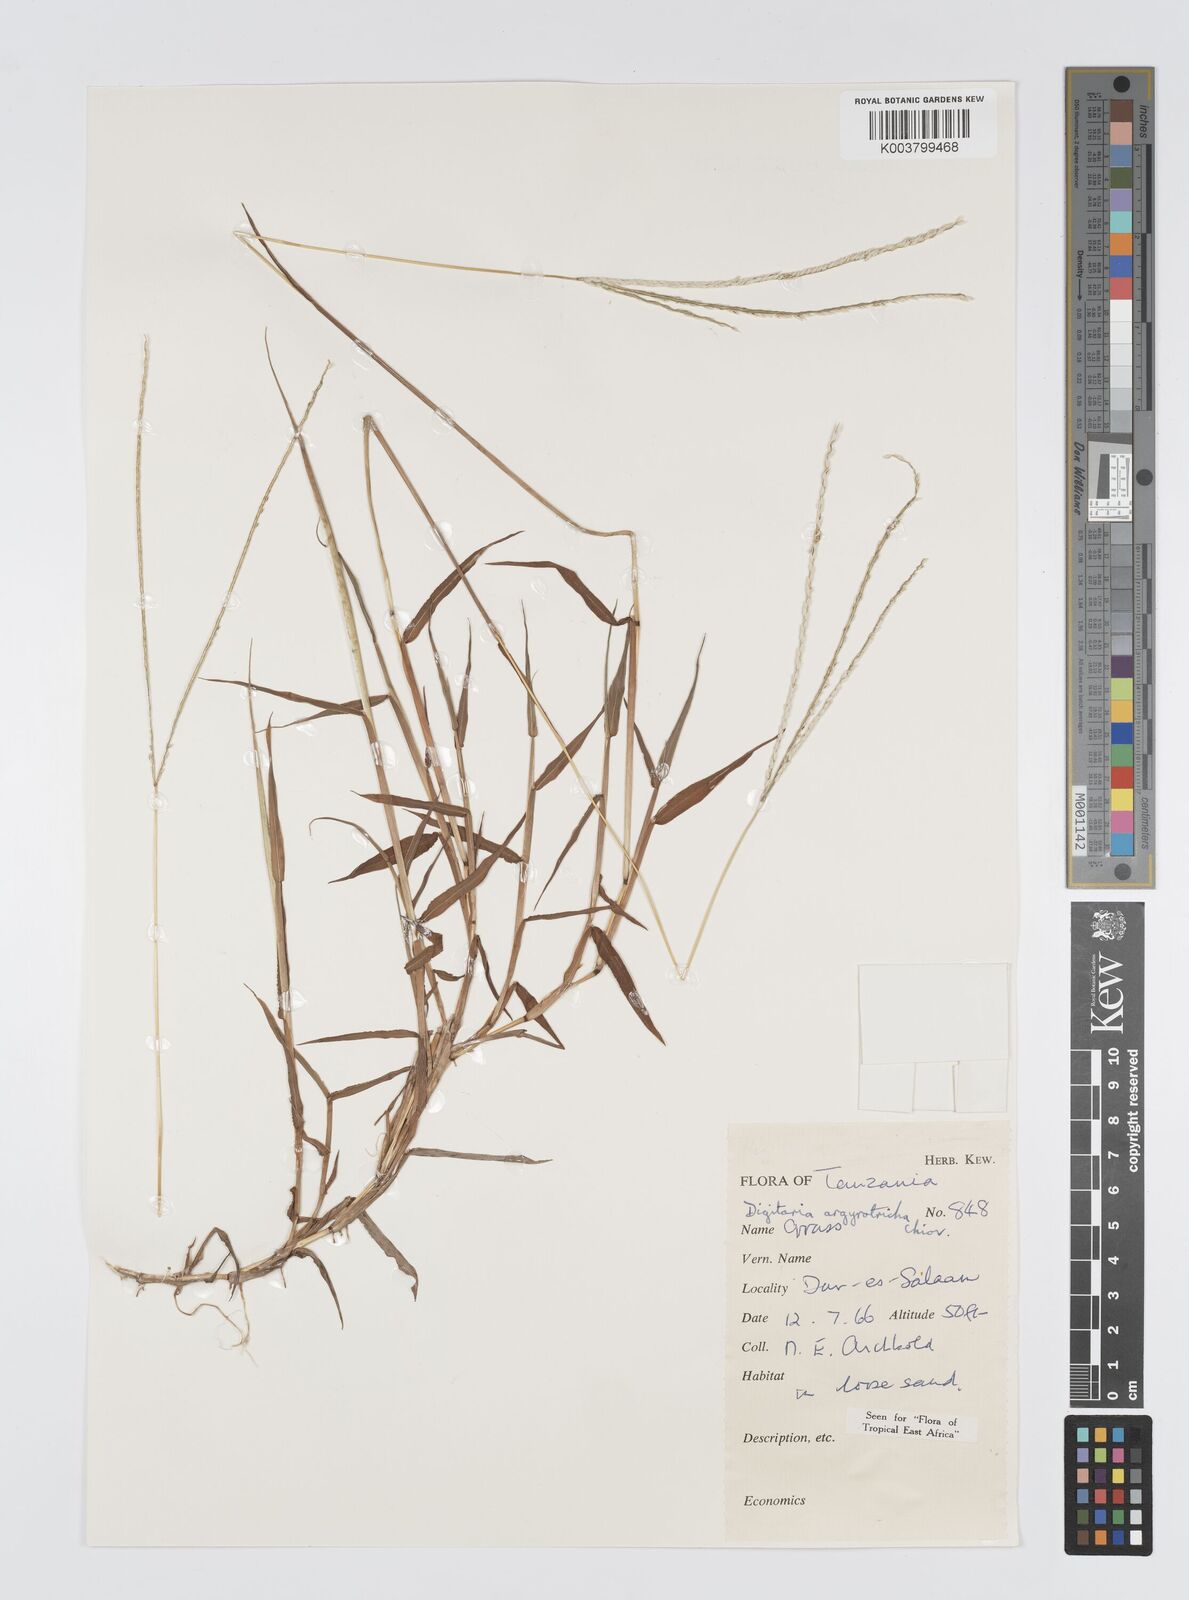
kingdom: Plantae
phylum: Tracheophyta
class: Liliopsida
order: Poales
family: Poaceae
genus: Digitaria
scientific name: Digitaria argyrotricha
